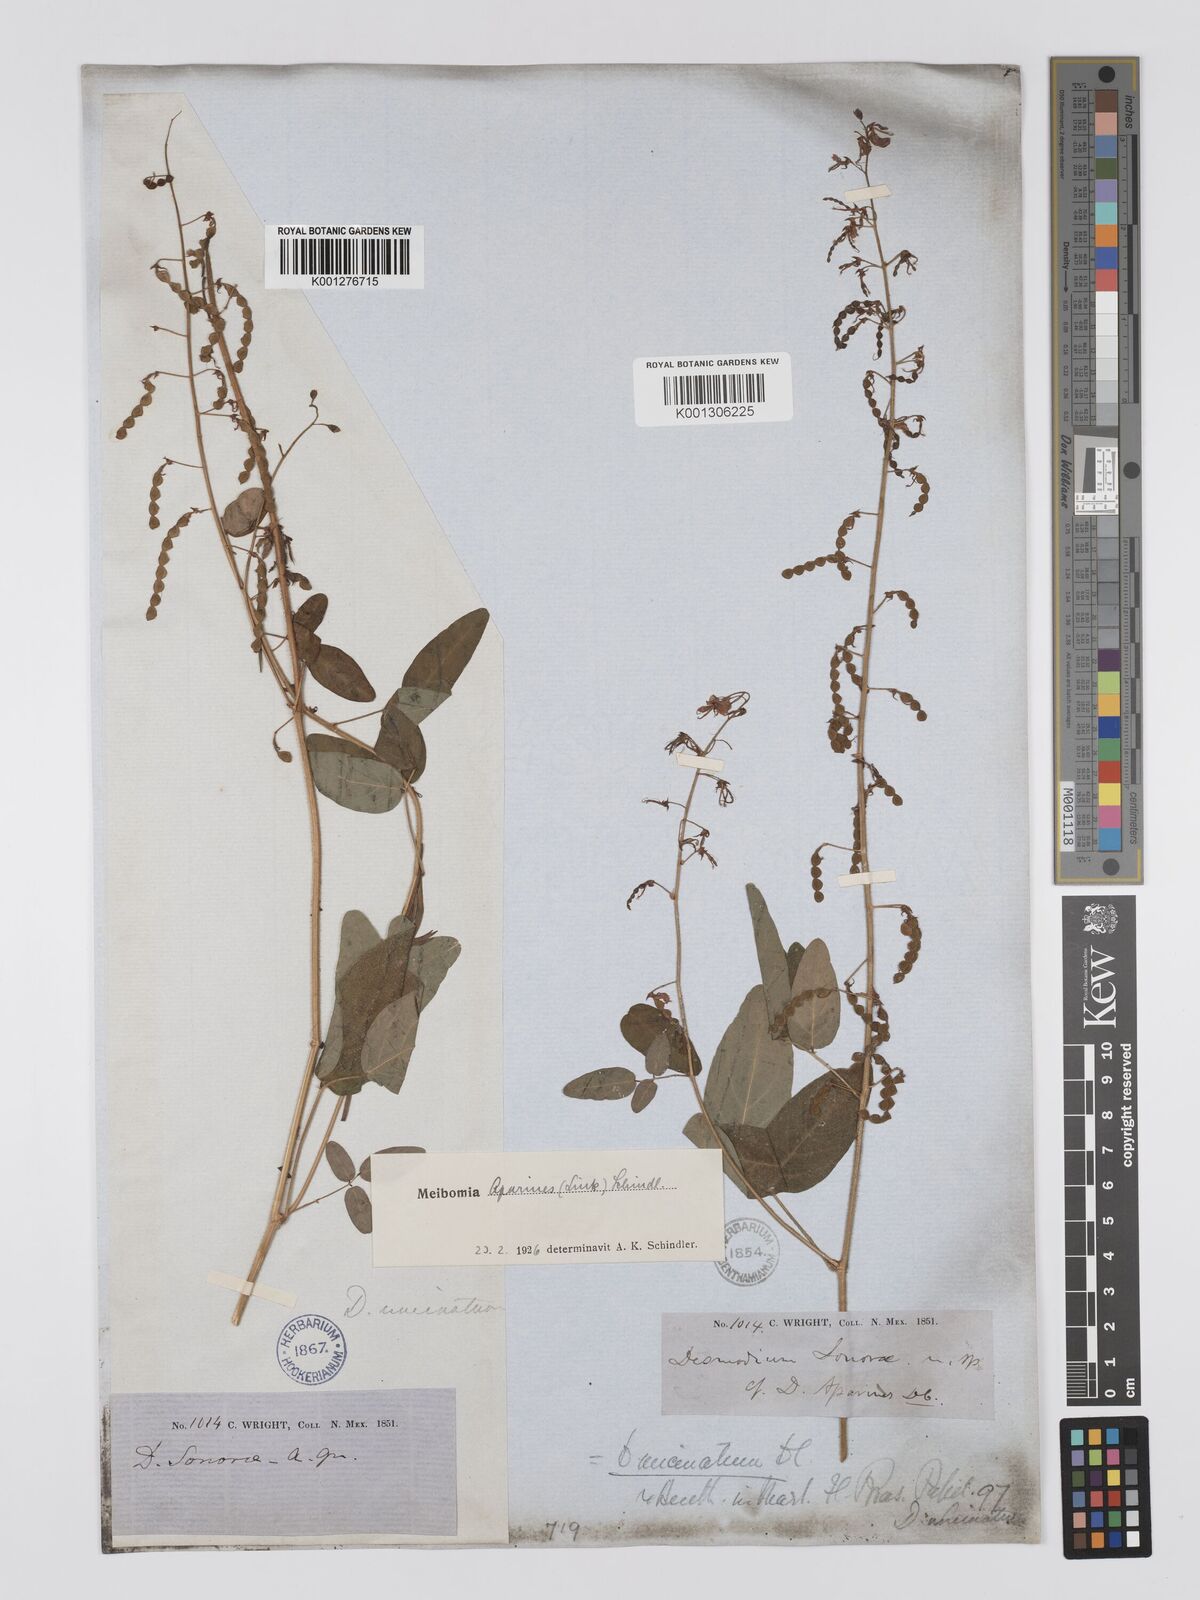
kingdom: Plantae
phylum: Tracheophyta
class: Magnoliopsida
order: Fabales
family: Fabaceae
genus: Desmodium
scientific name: Desmodium uncinatum
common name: Silverleaf desmodium
